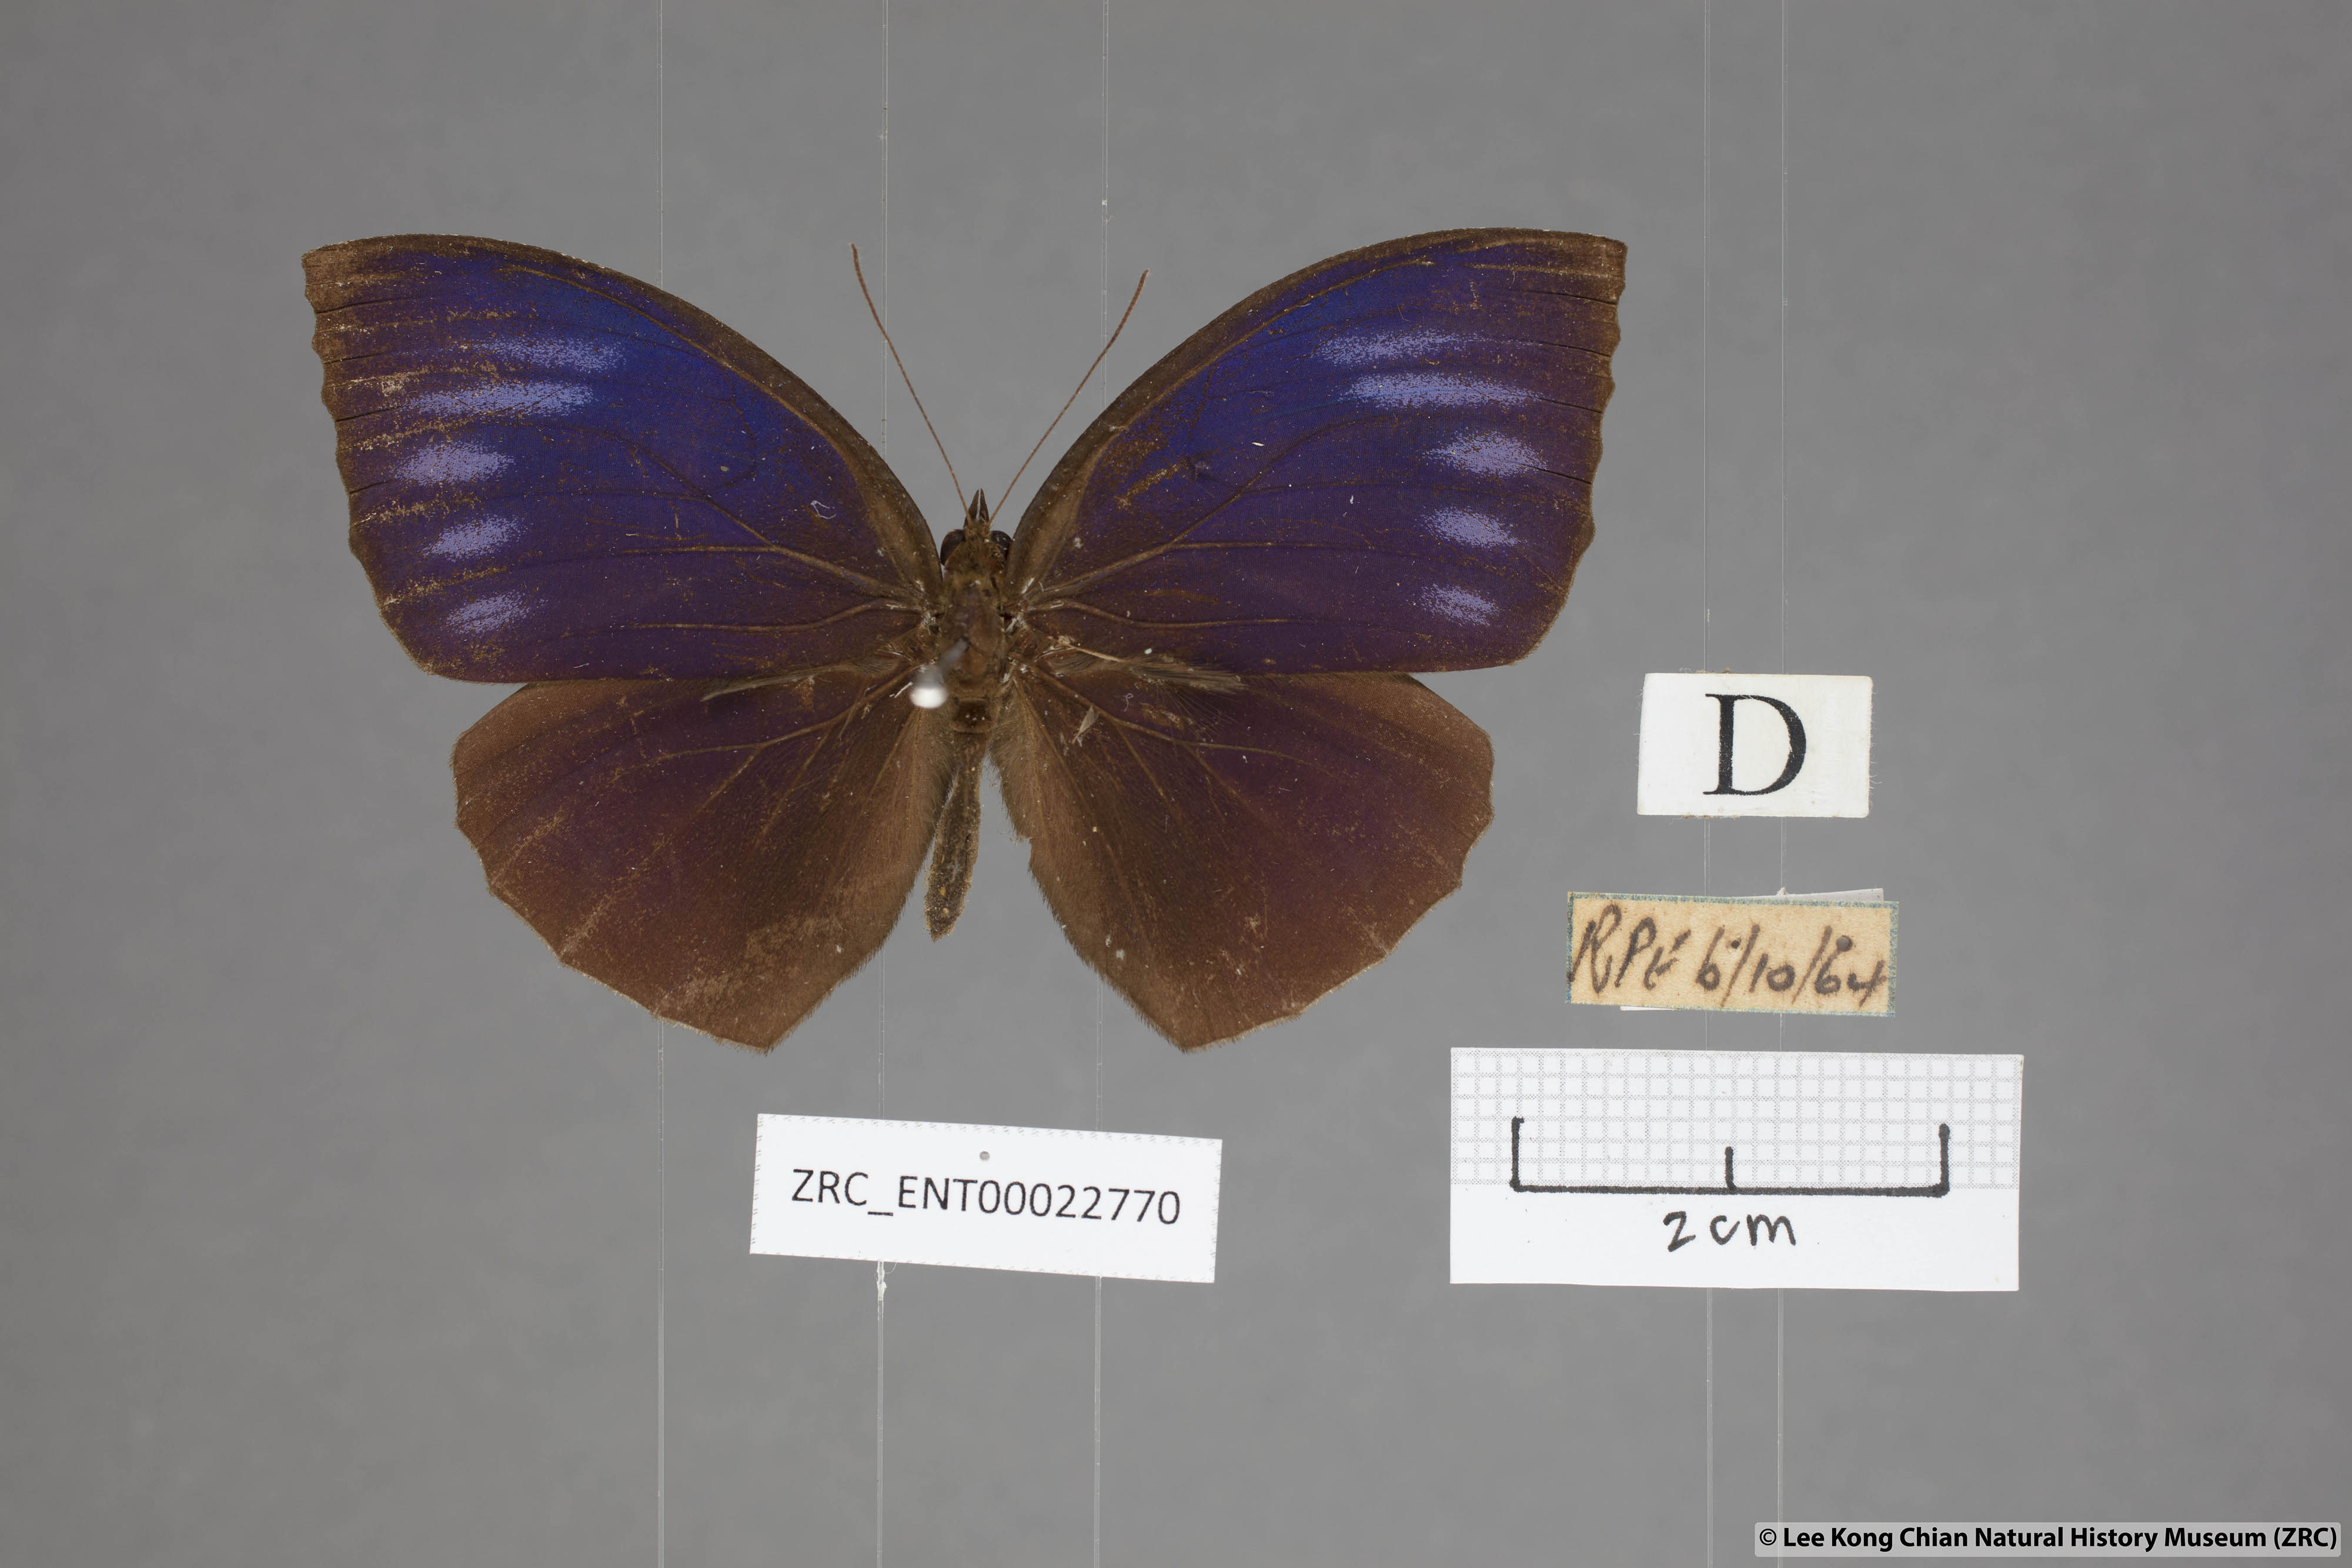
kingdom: Animalia
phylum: Arthropoda
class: Insecta
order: Lepidoptera
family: Nymphalidae
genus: Elymnias
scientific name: Elymnias penanga
